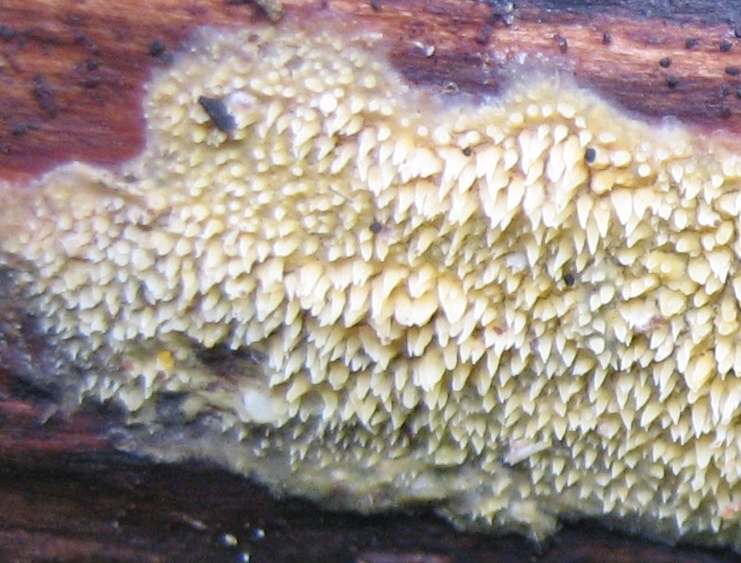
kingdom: Fungi
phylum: Basidiomycota
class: Agaricomycetes
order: Polyporales
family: Meruliaceae
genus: Mycoacia
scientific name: Mycoacia uda
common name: citrongul vokspig
